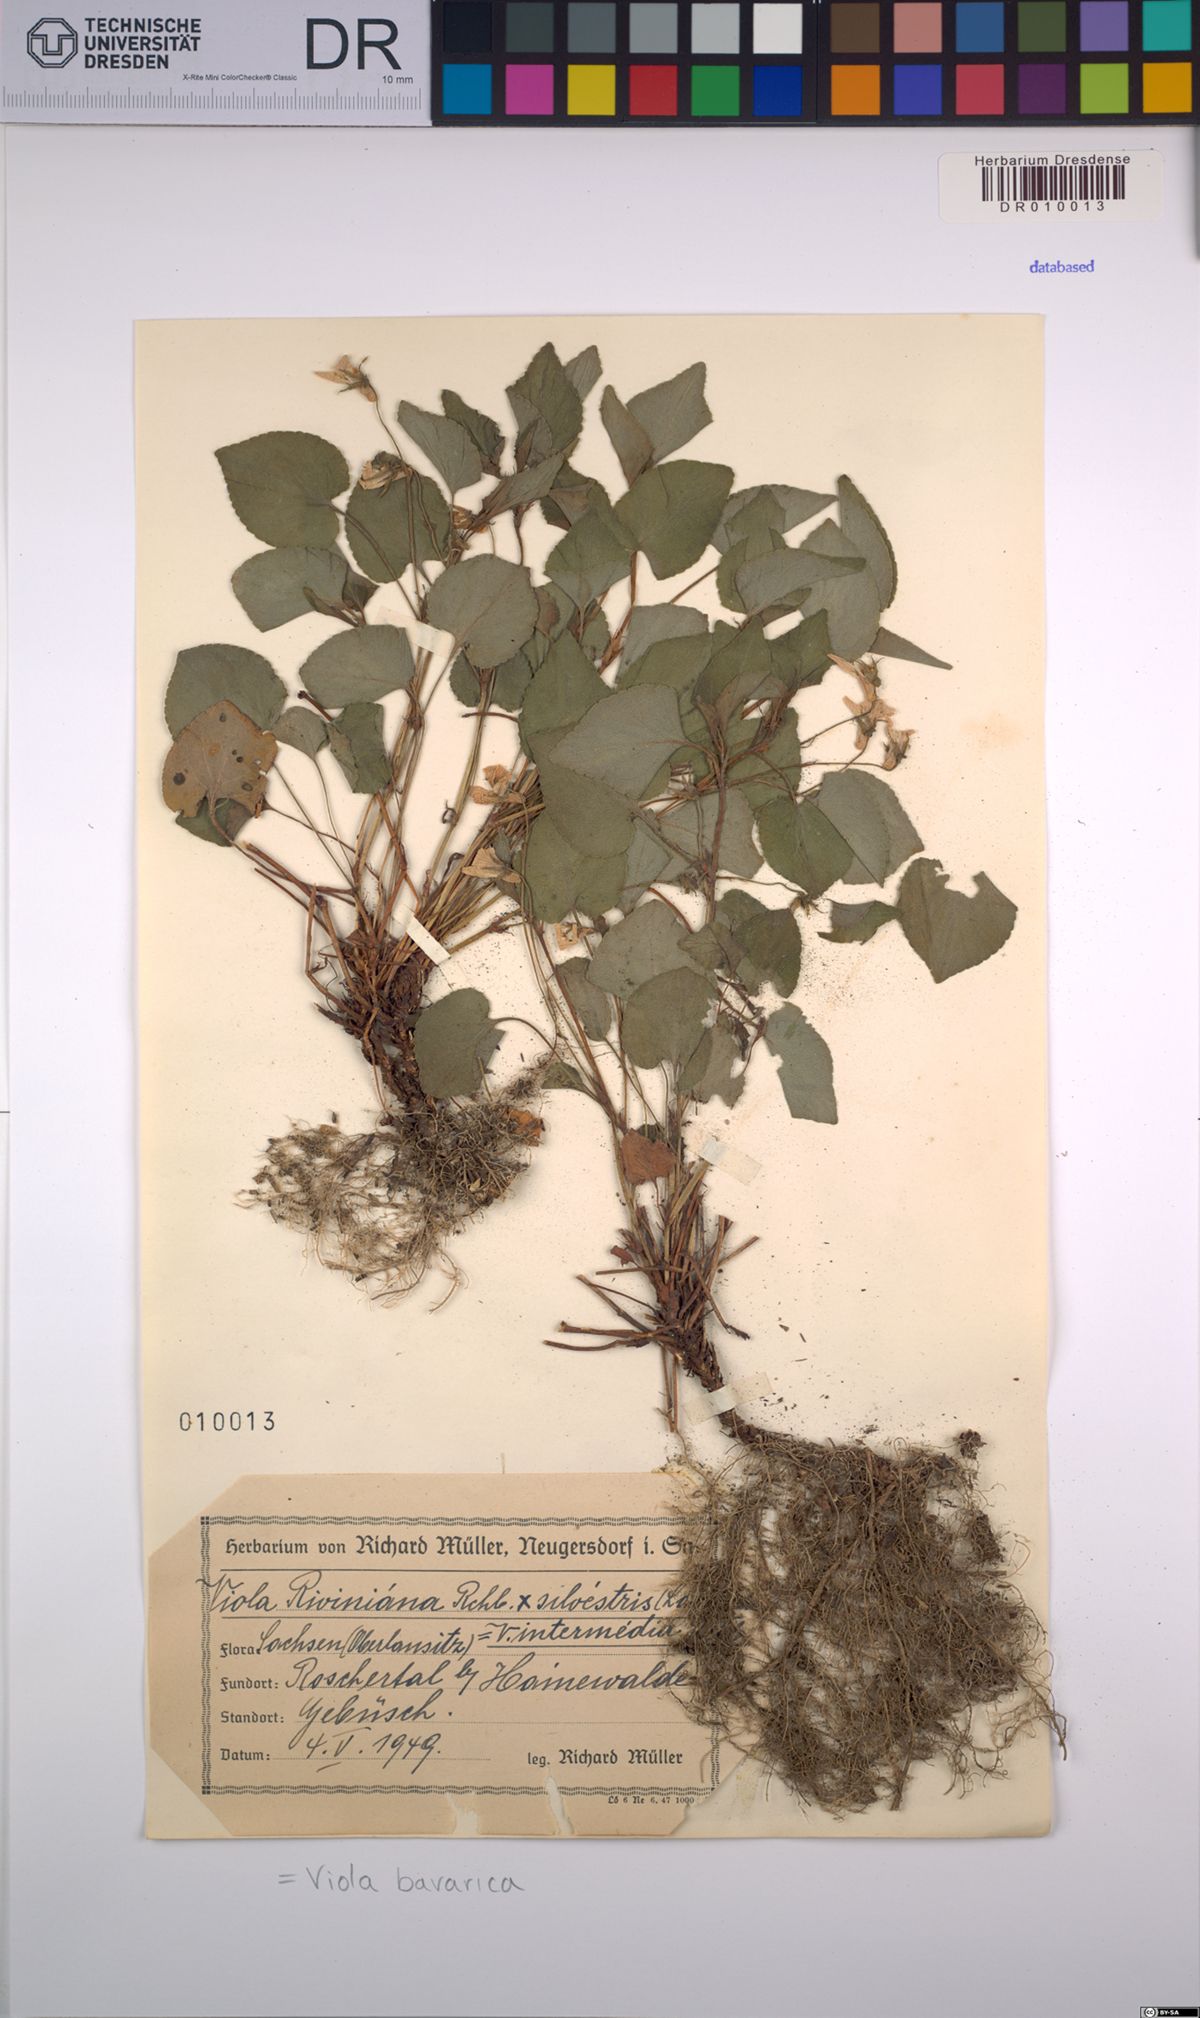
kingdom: Plantae
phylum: Tracheophyta
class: Magnoliopsida
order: Malpighiales
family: Violaceae
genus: Viola
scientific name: Viola bavarica
